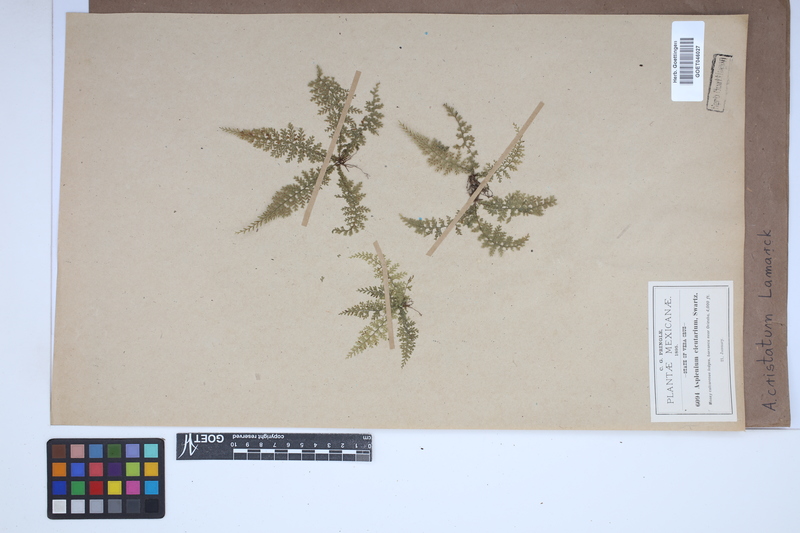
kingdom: Plantae
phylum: Tracheophyta
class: Polypodiopsida
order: Polypodiales
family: Aspleniaceae
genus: Asplenium
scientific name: Asplenium cristatum
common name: Parsley spleenwort
